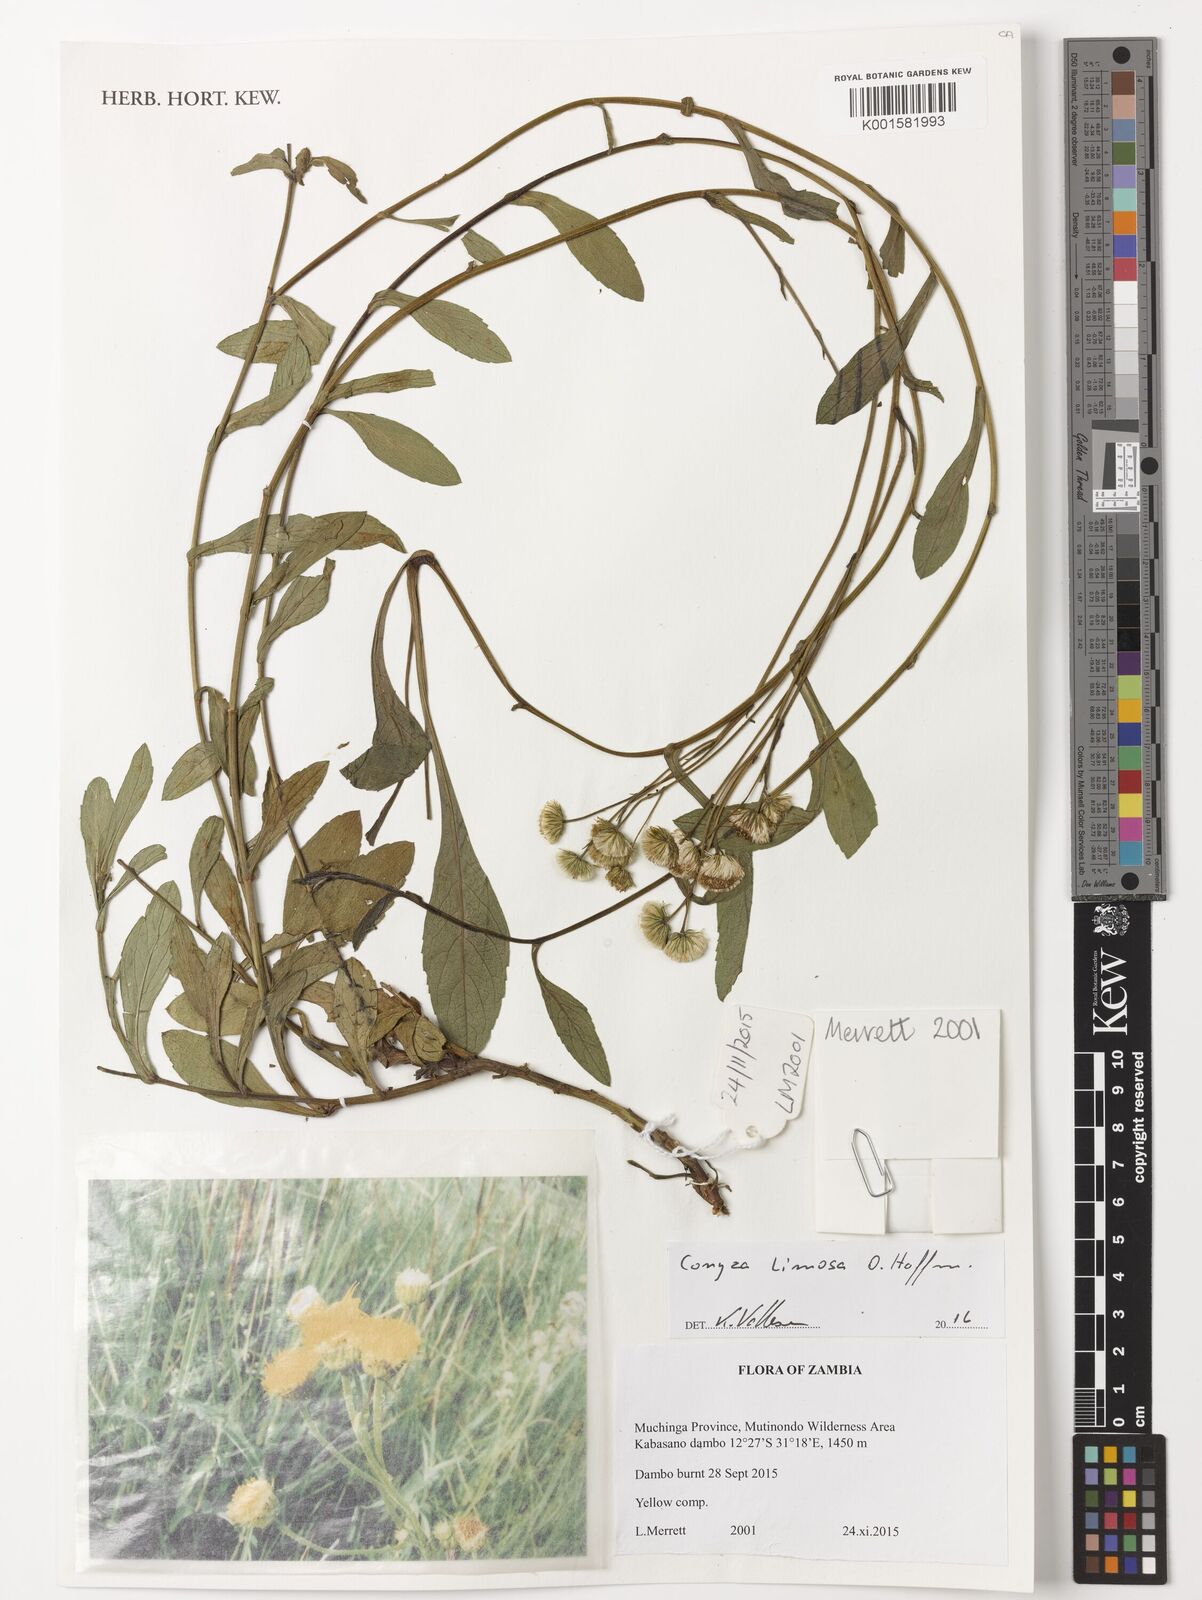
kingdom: Plantae
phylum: Tracheophyta
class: Magnoliopsida
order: Asterales
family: Asteraceae
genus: Conyza
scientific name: Conyza limosa
